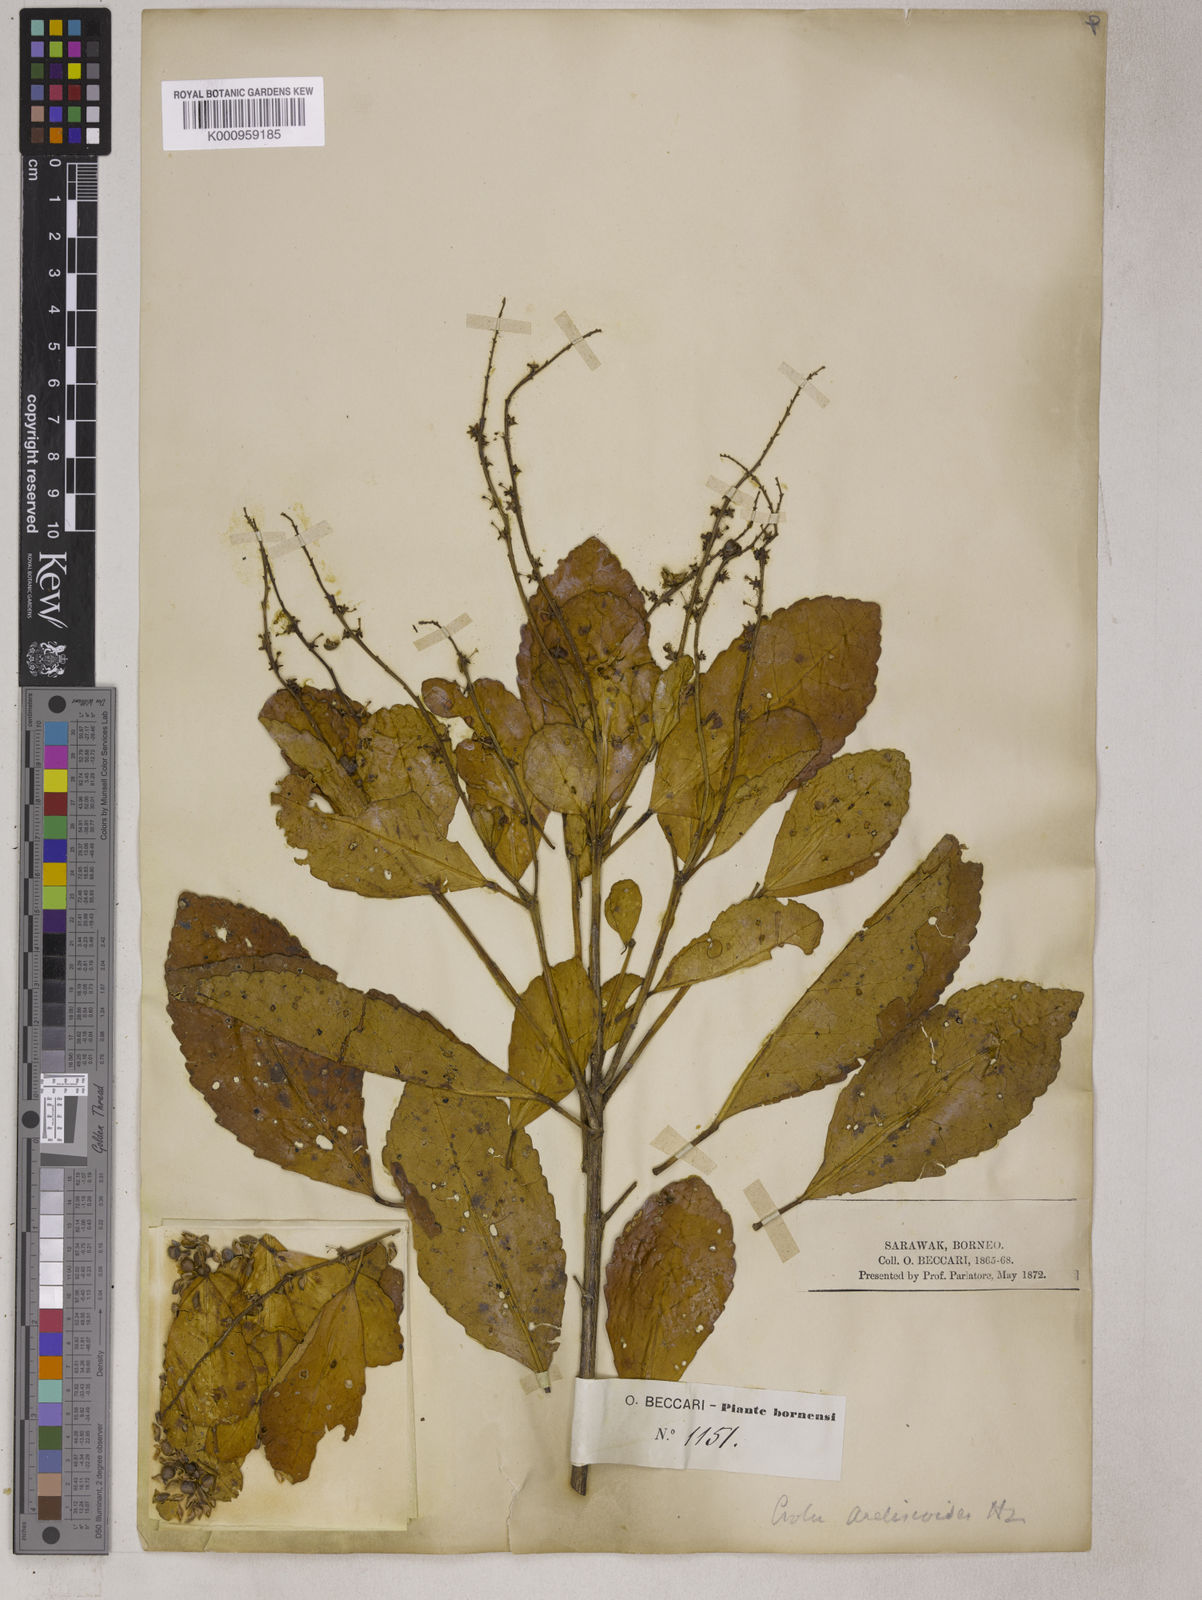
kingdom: Plantae
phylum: Tracheophyta
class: Magnoliopsida
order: Malpighiales
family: Euphorbiaceae
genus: Croton
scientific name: Croton
